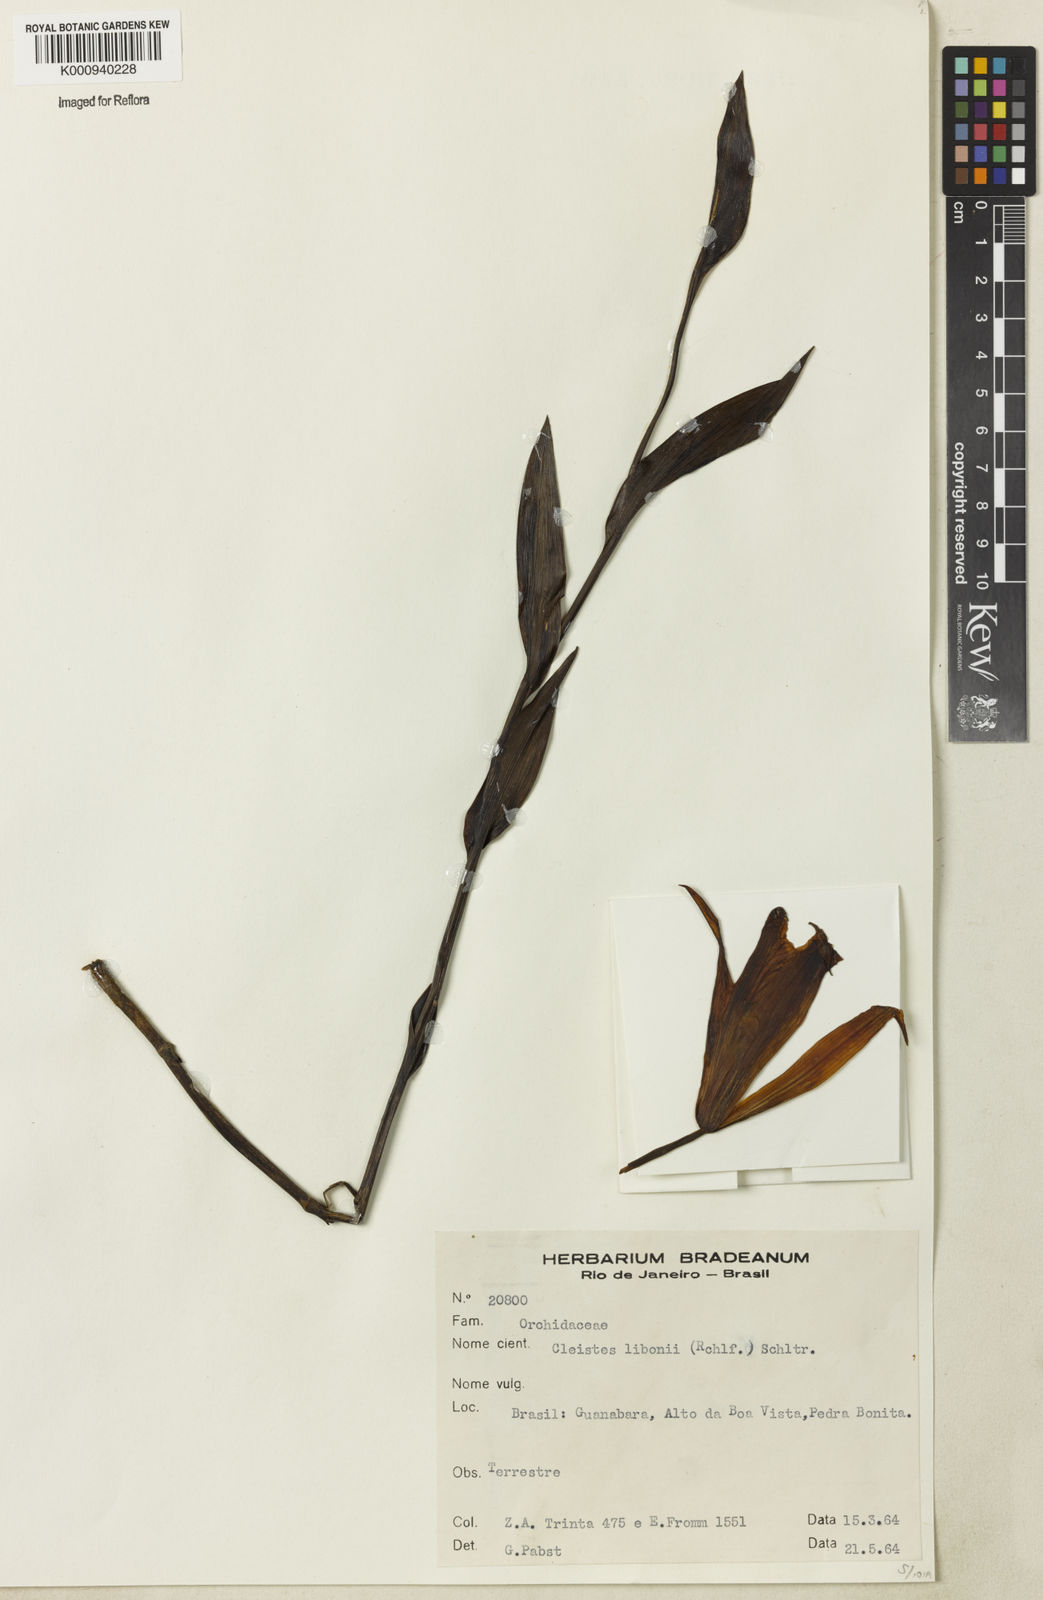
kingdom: Plantae
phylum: Tracheophyta
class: Liliopsida
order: Asparagales
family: Orchidaceae
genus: Cleistes
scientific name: Cleistes libonii
